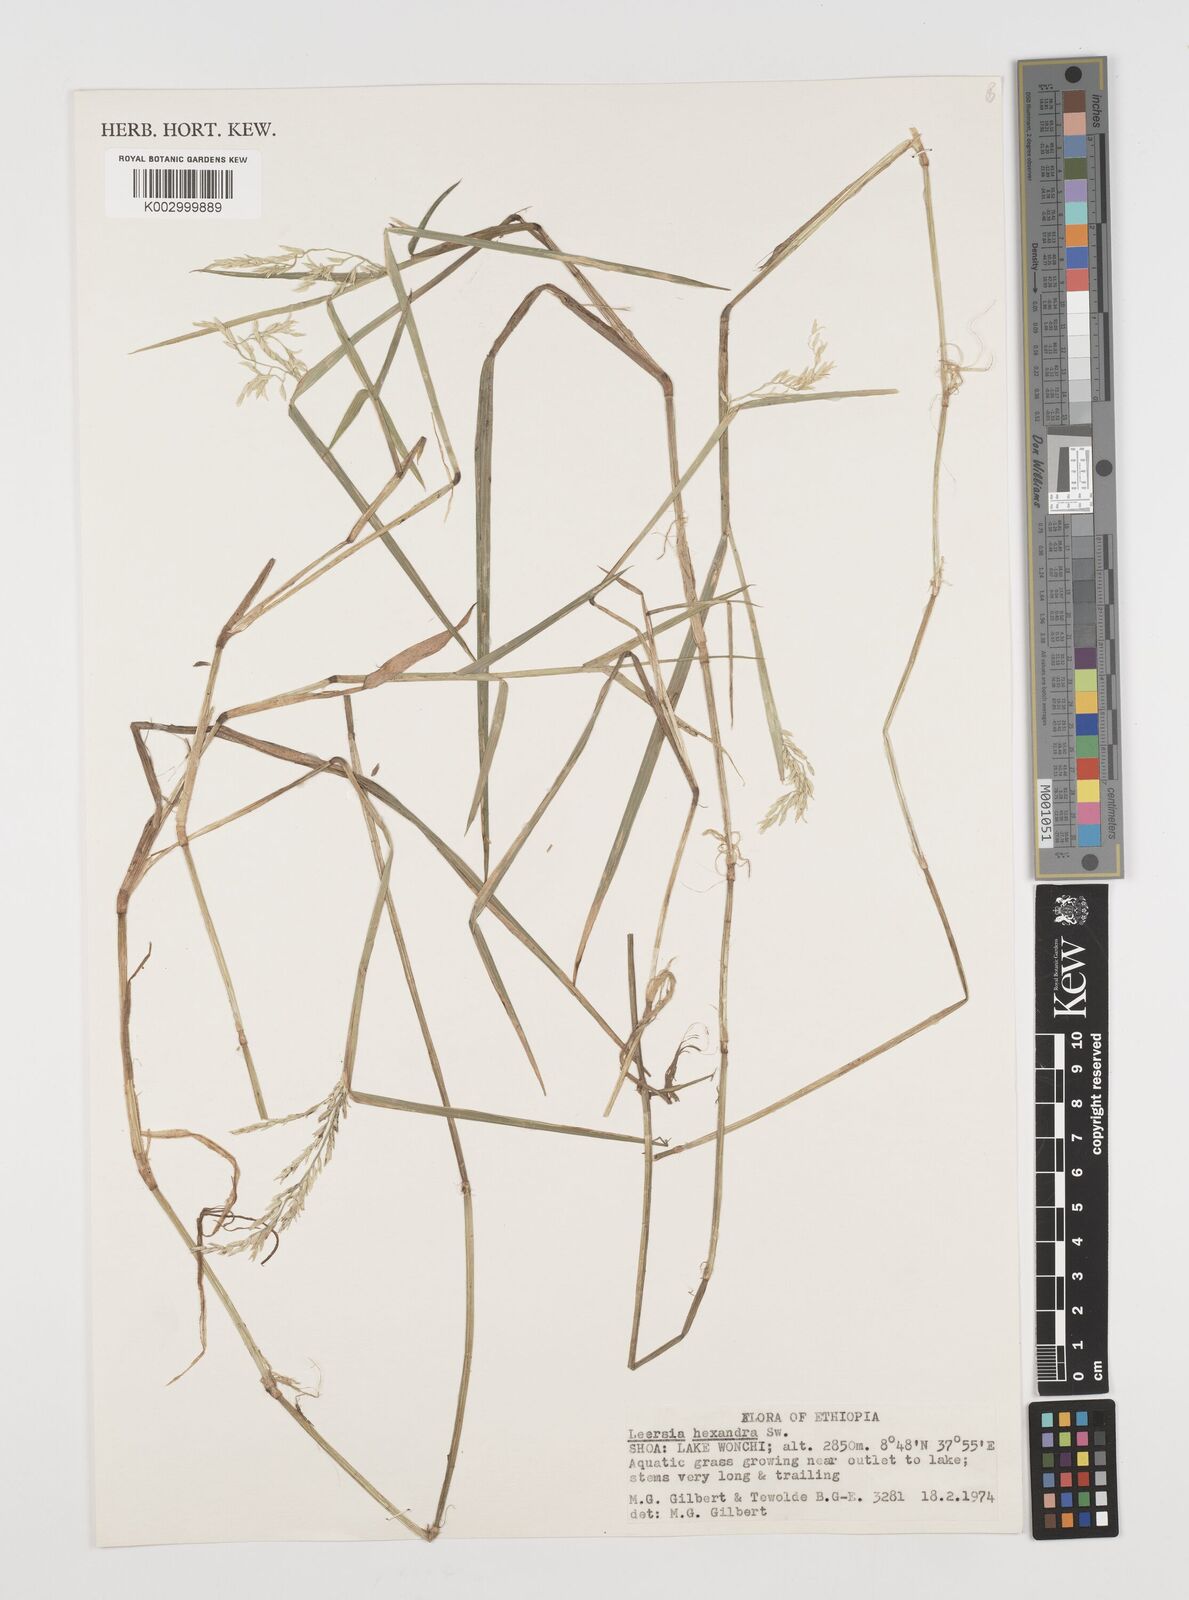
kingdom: Plantae
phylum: Tracheophyta
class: Liliopsida
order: Poales
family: Poaceae
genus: Leersia
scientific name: Leersia hexandra
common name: Southern cut grass
